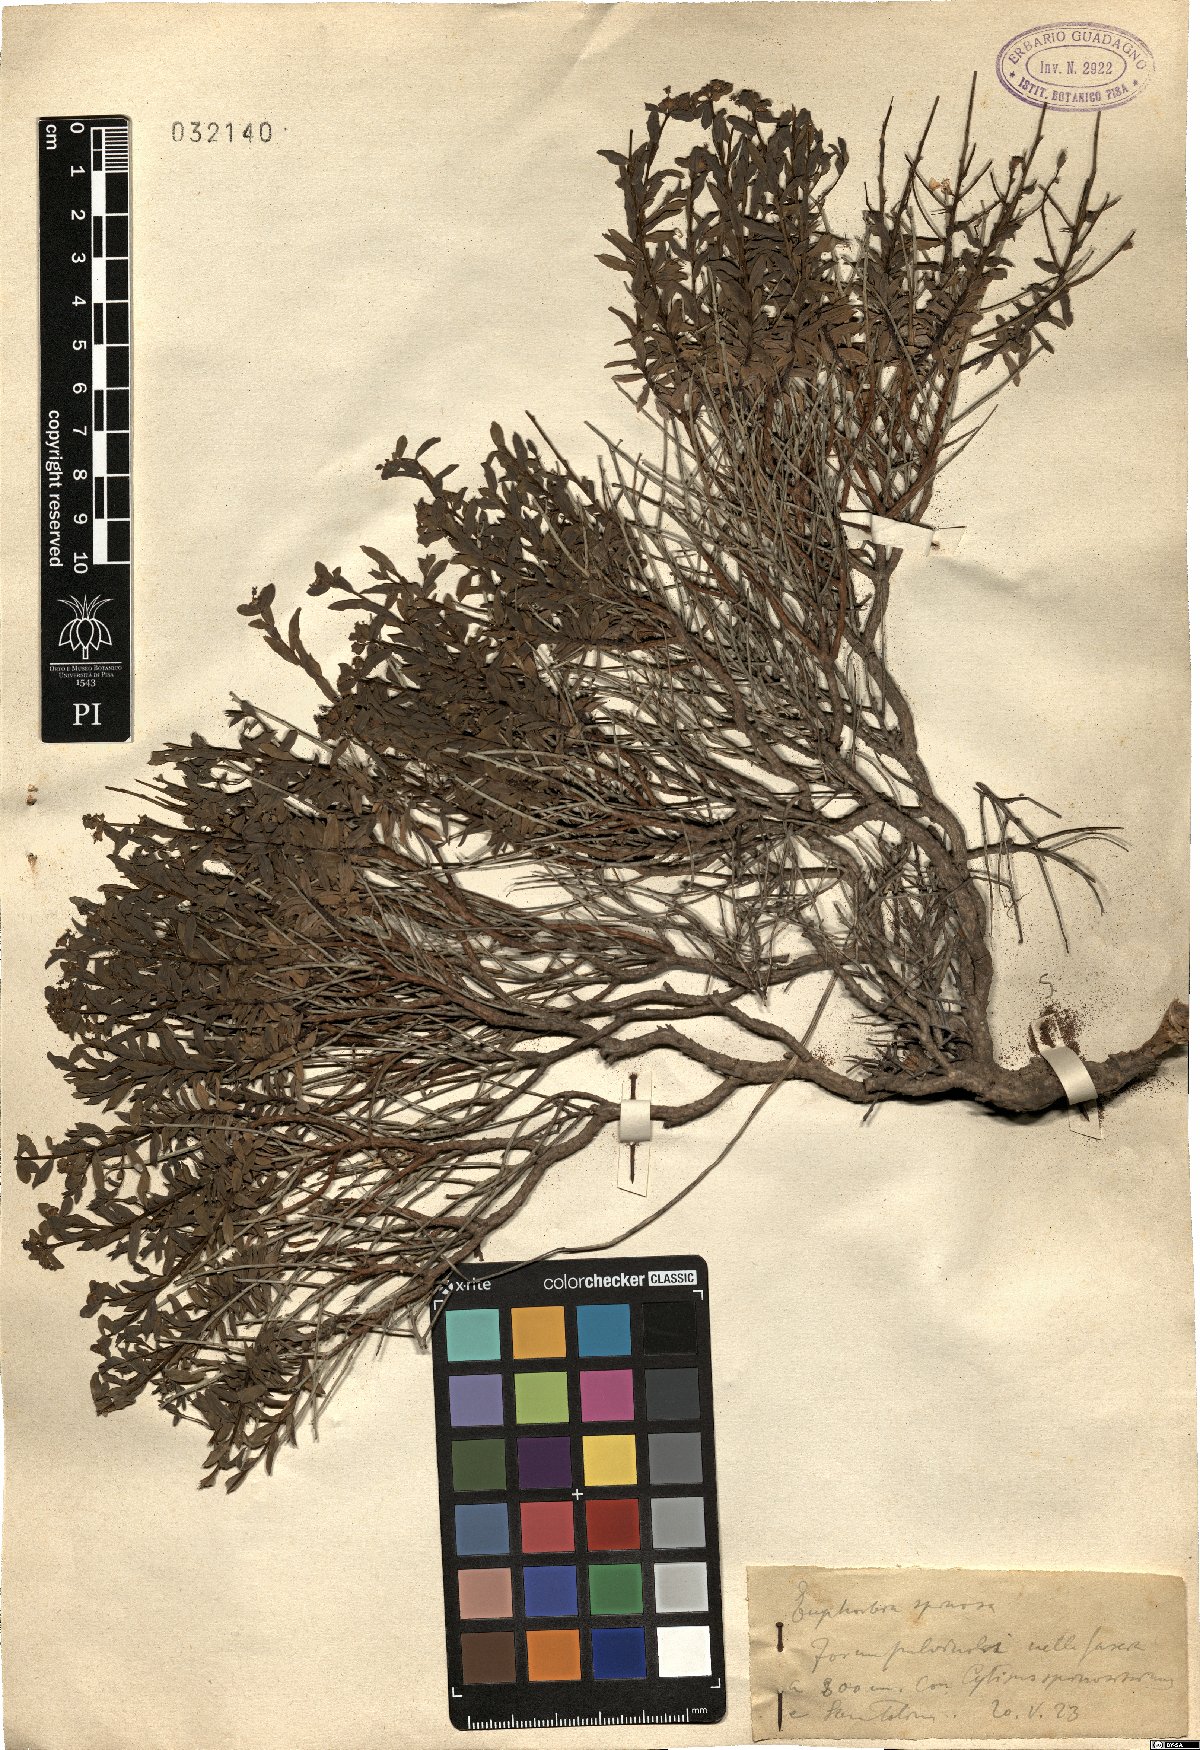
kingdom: Plantae
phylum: Tracheophyta
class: Magnoliopsida
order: Malpighiales
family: Euphorbiaceae
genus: Euphorbia
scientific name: Euphorbia spinosa
